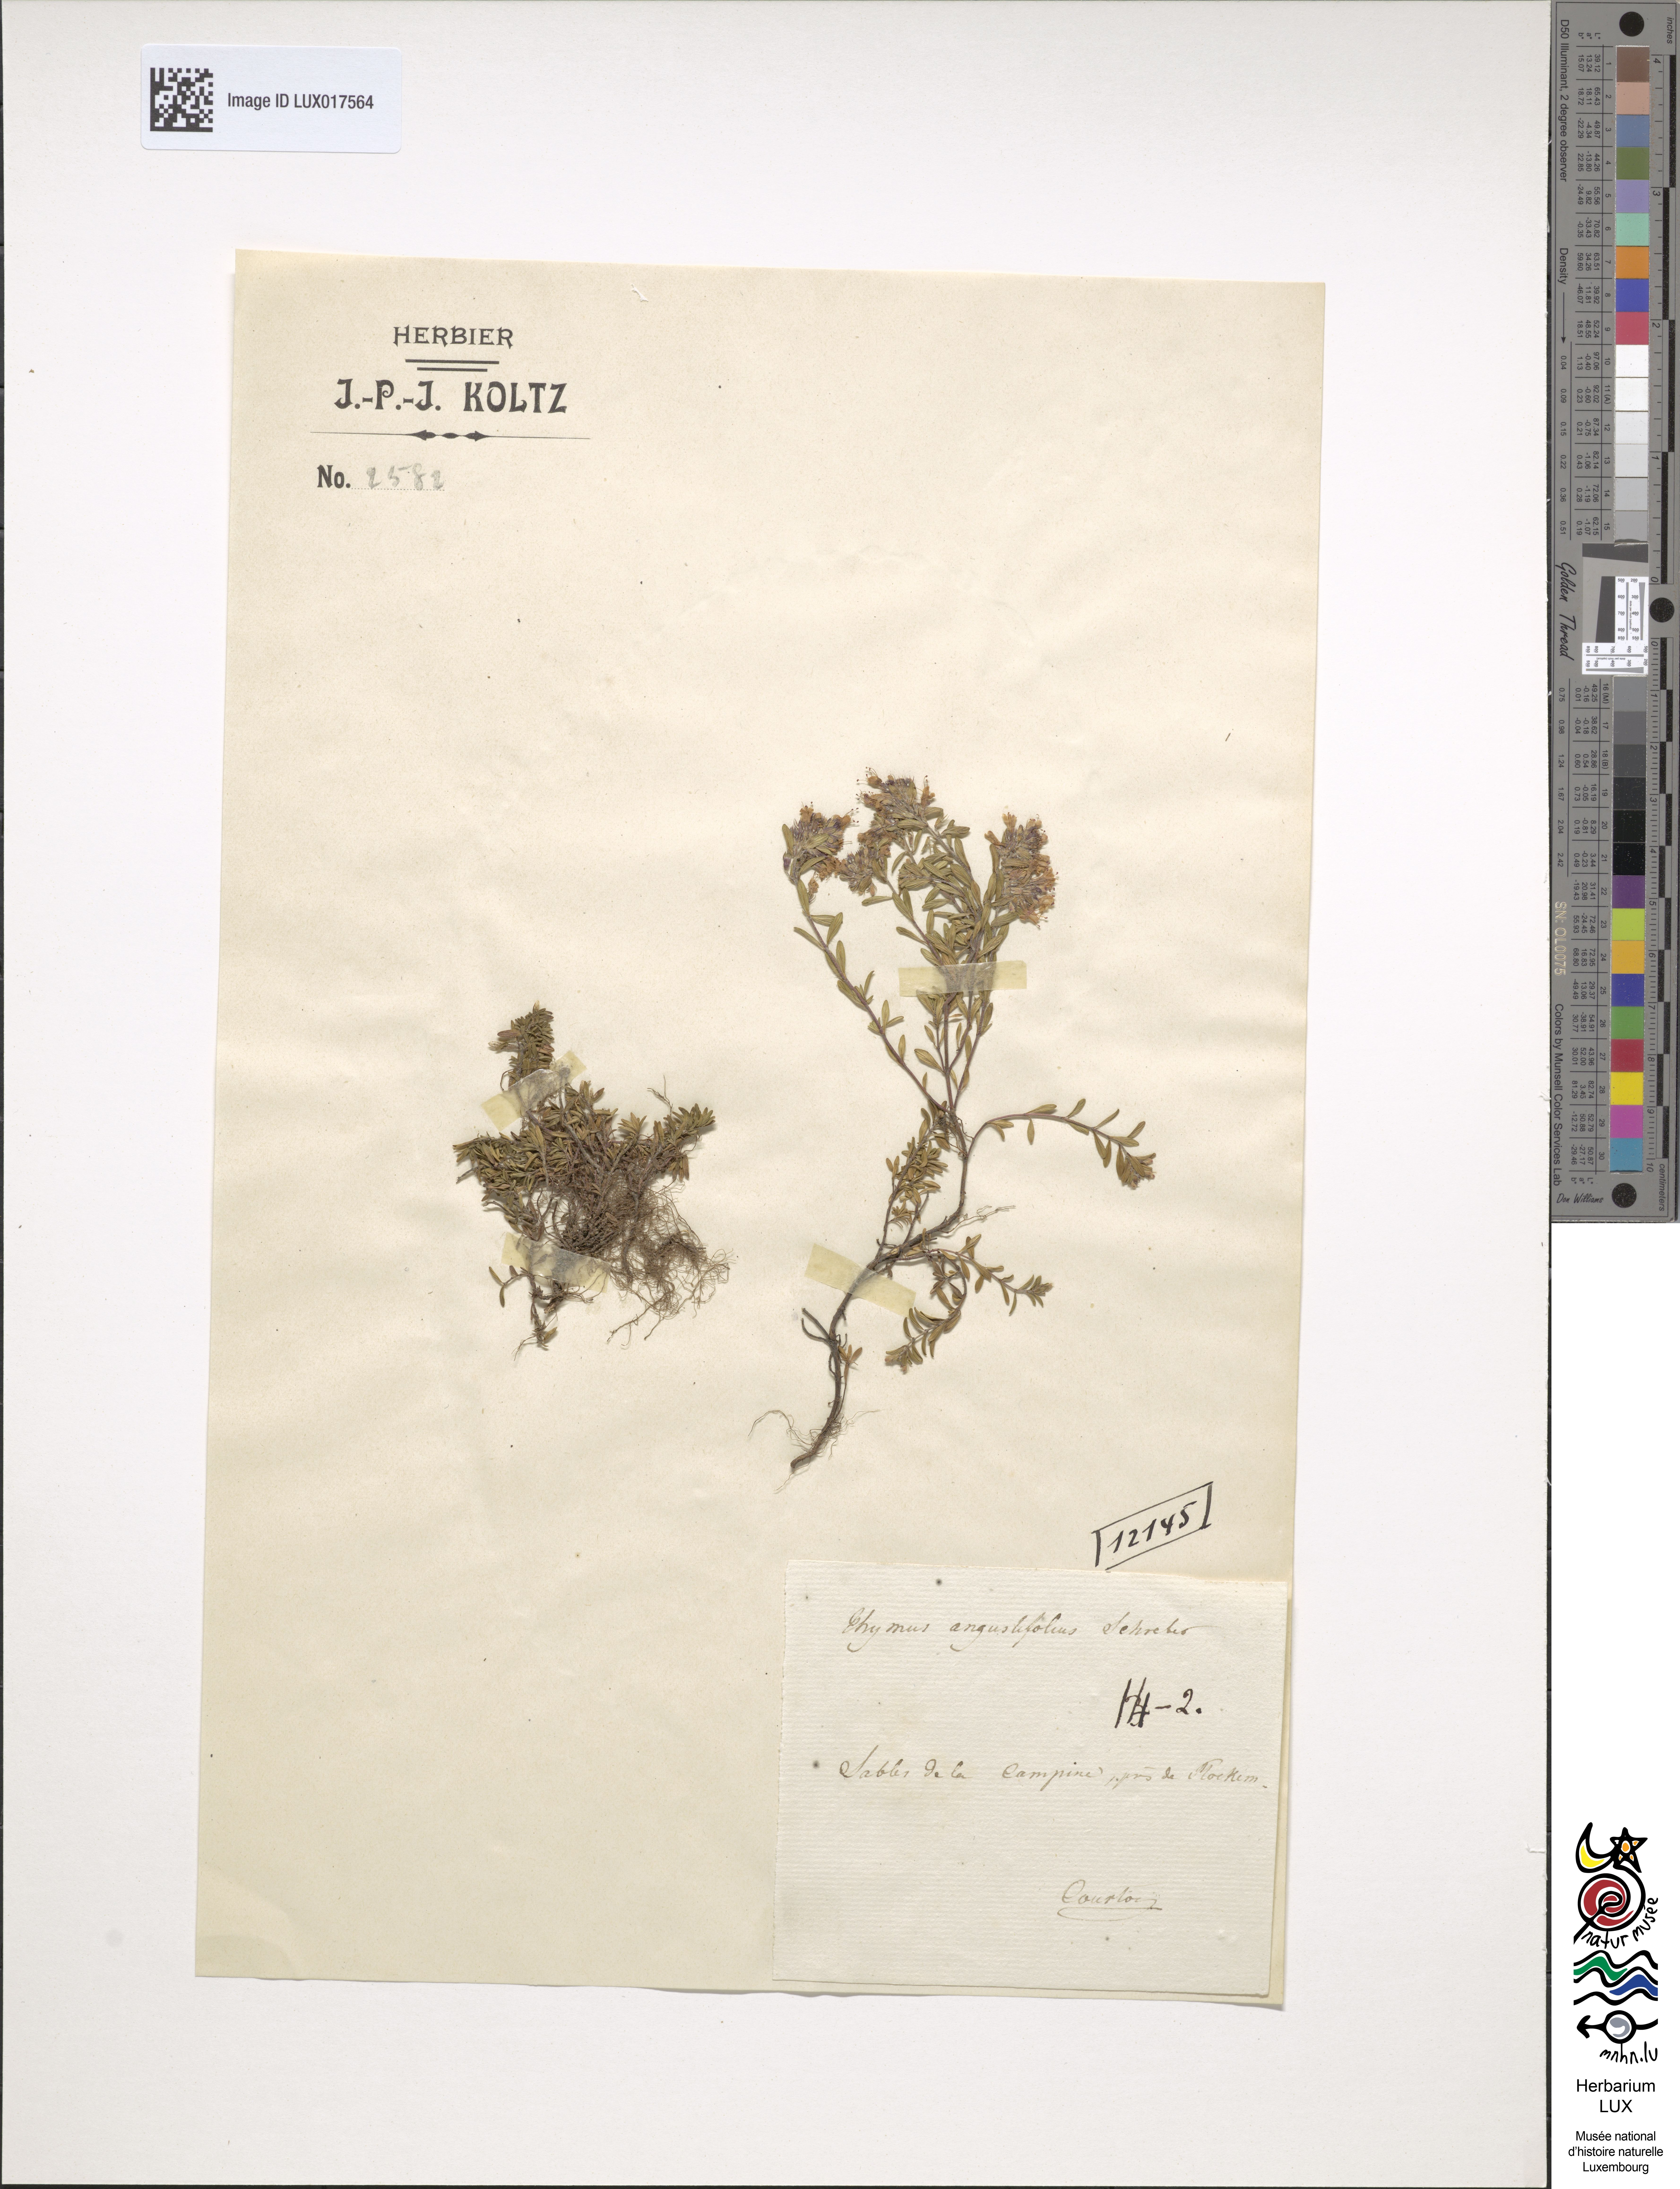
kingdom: Plantae
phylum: Tracheophyta
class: Magnoliopsida
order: Lamiales
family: Lamiaceae
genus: Thymus
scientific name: Thymus serpyllum
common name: Breckland thyme
